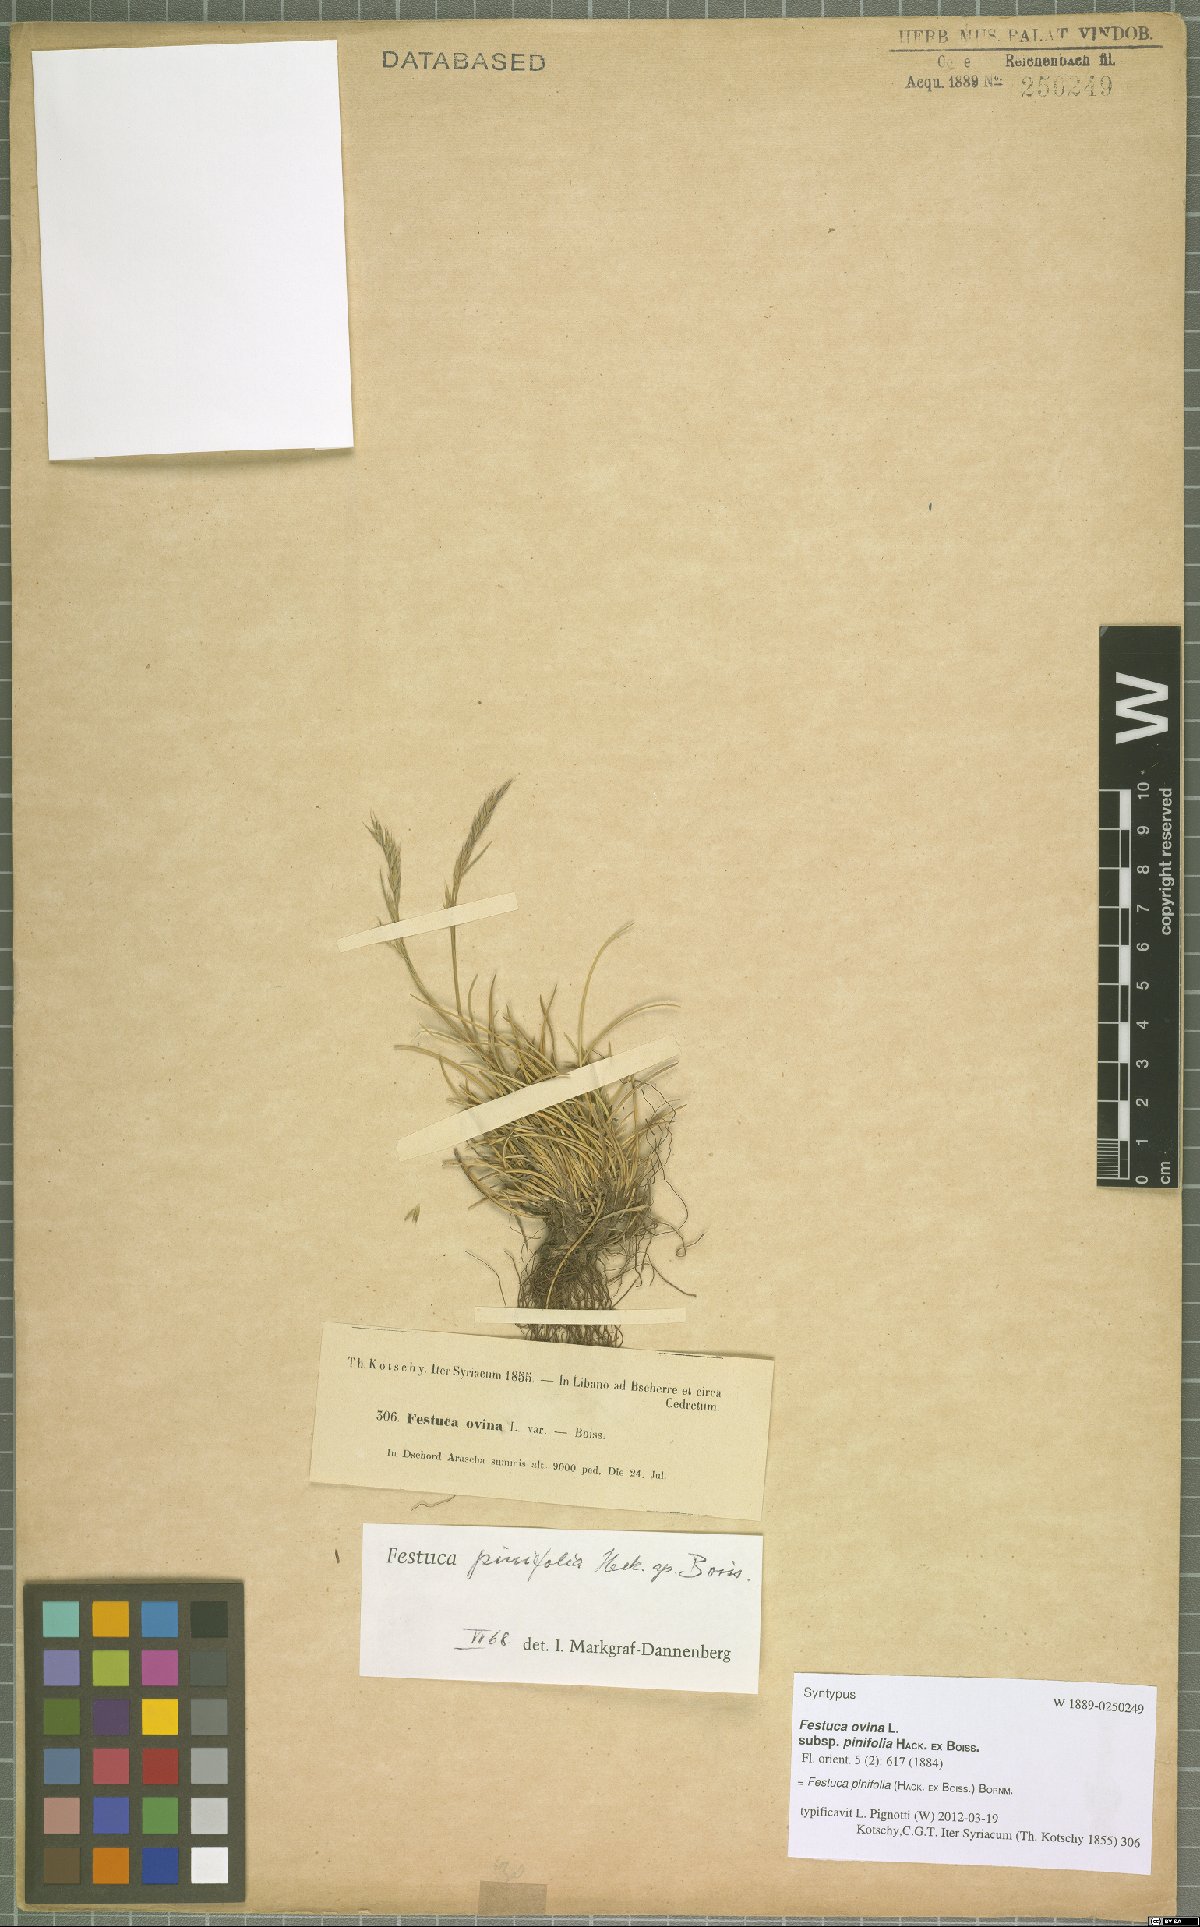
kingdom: Plantae
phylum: Tracheophyta
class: Liliopsida
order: Poales
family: Poaceae
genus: Festuca
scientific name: Festuca pinifolia
